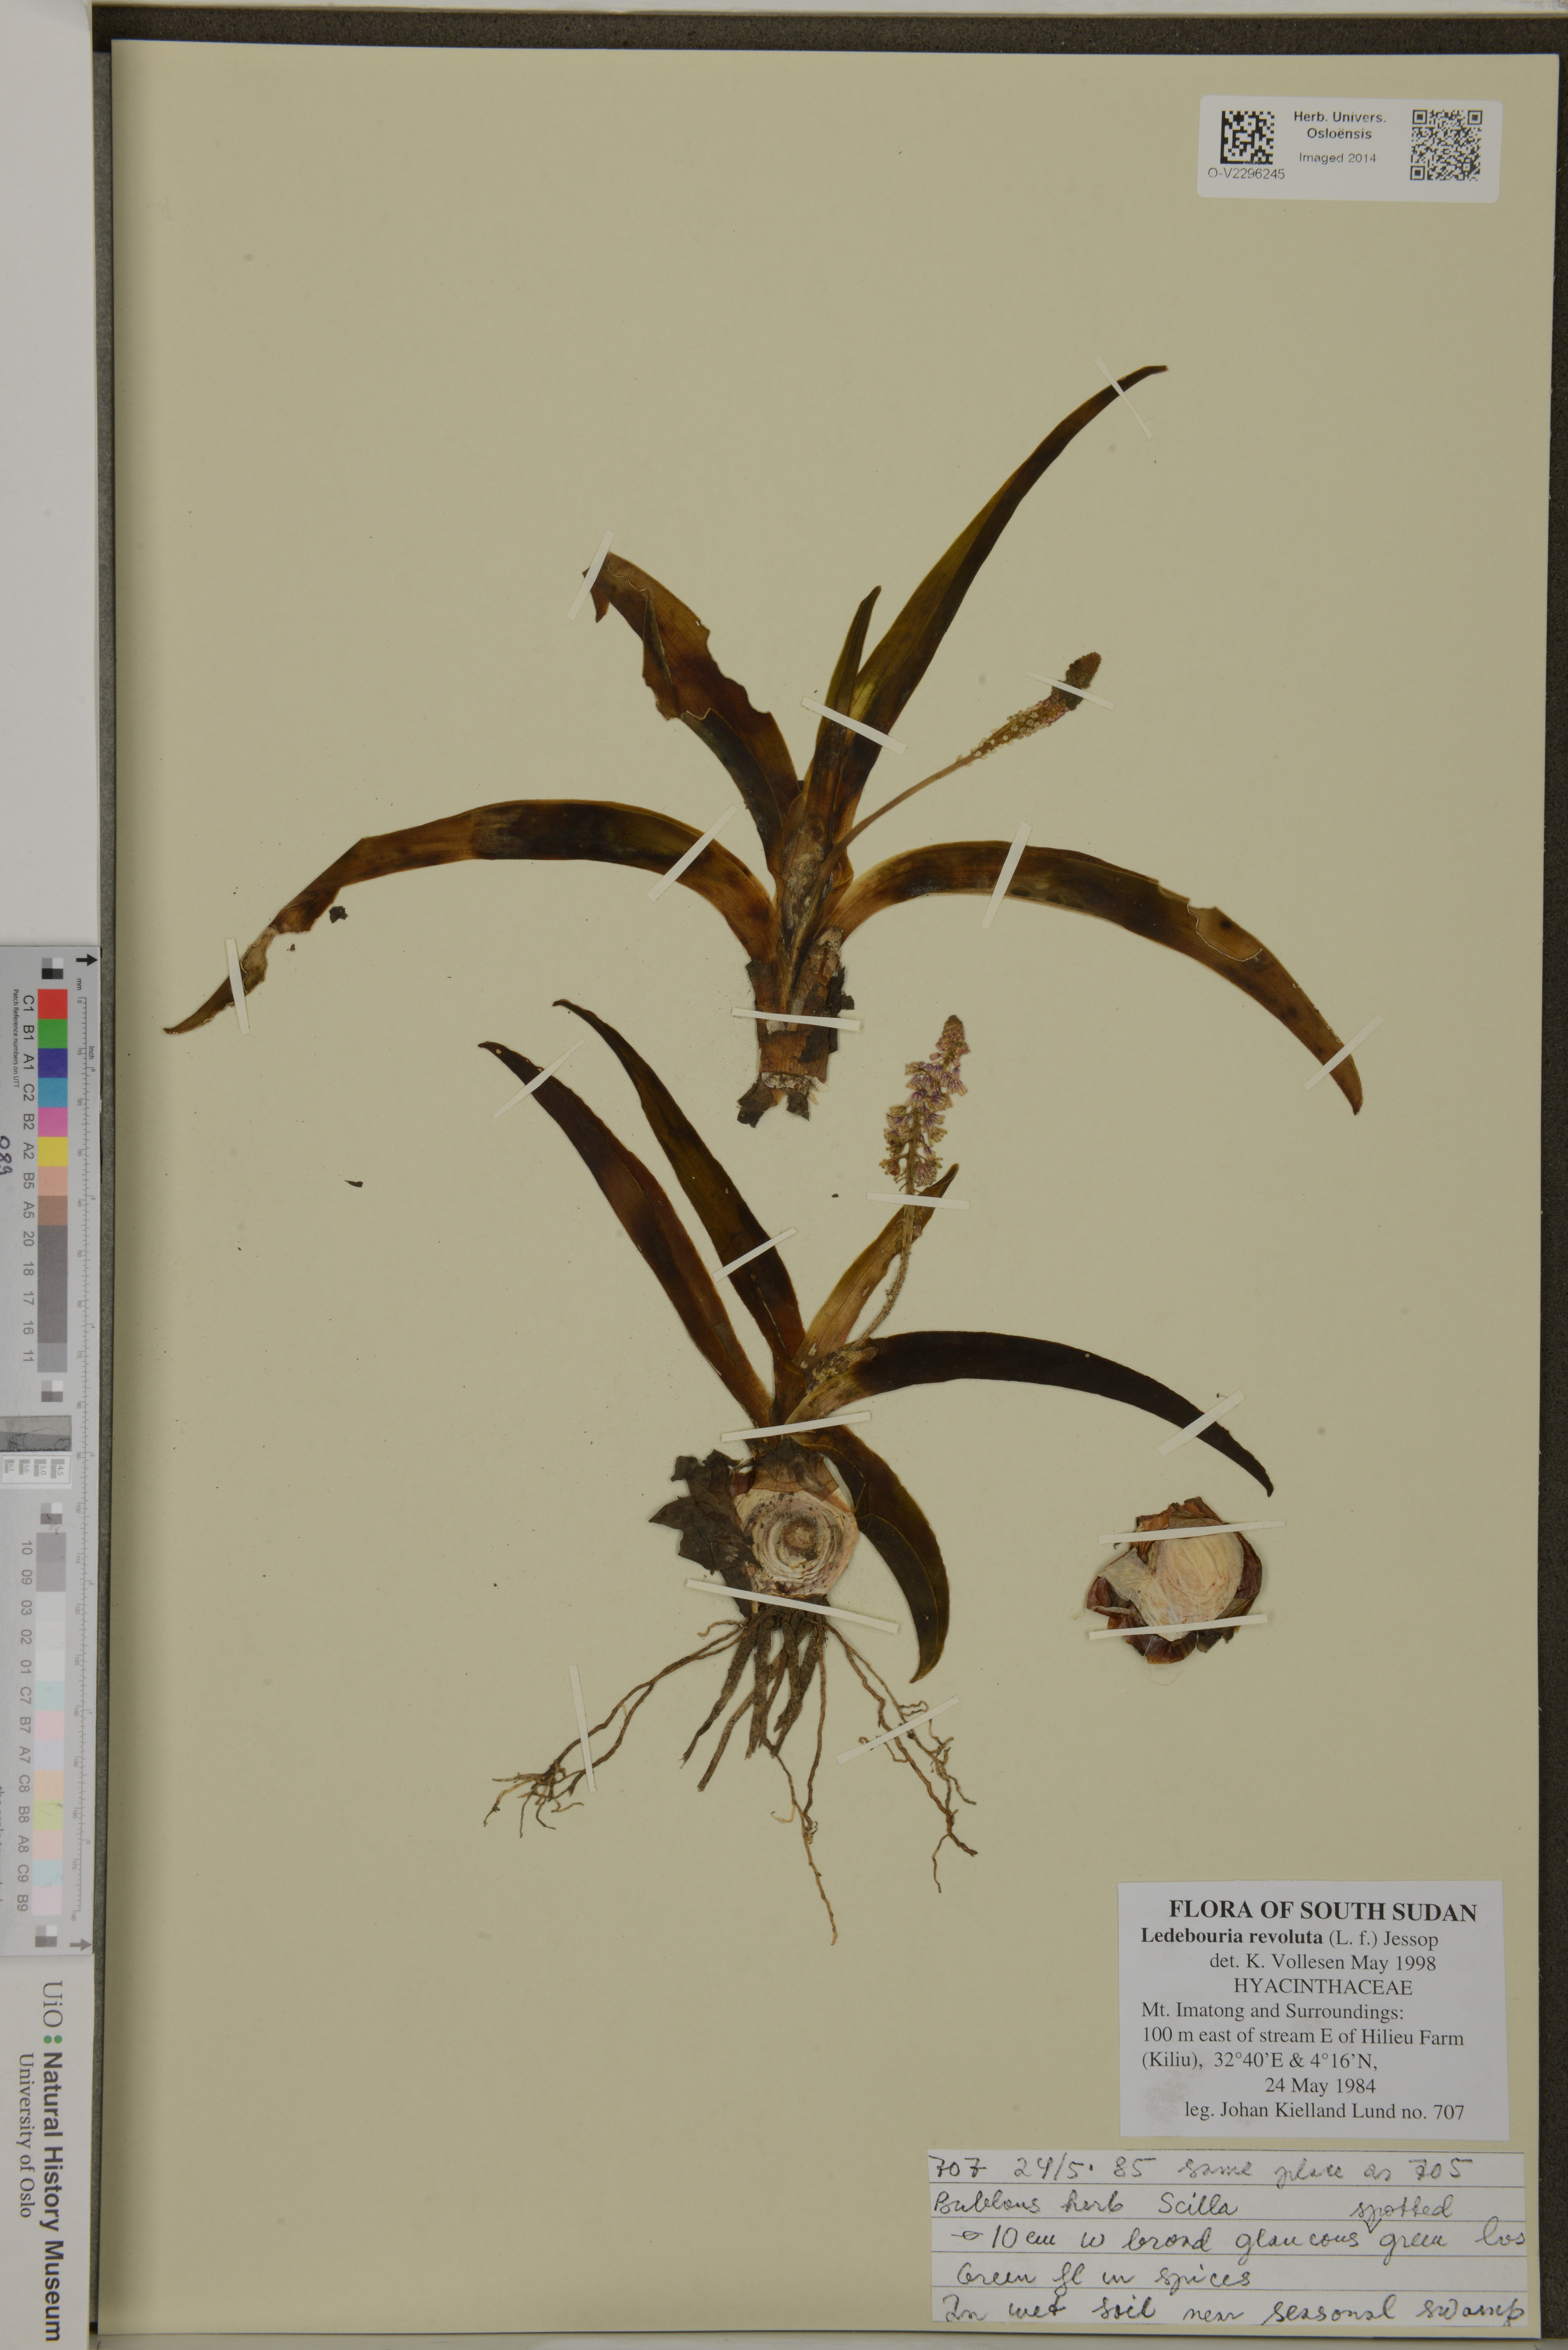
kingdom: Plantae
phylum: Tracheophyta
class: Liliopsida
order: Asparagales
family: Asparagaceae
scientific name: Asparagaceae
